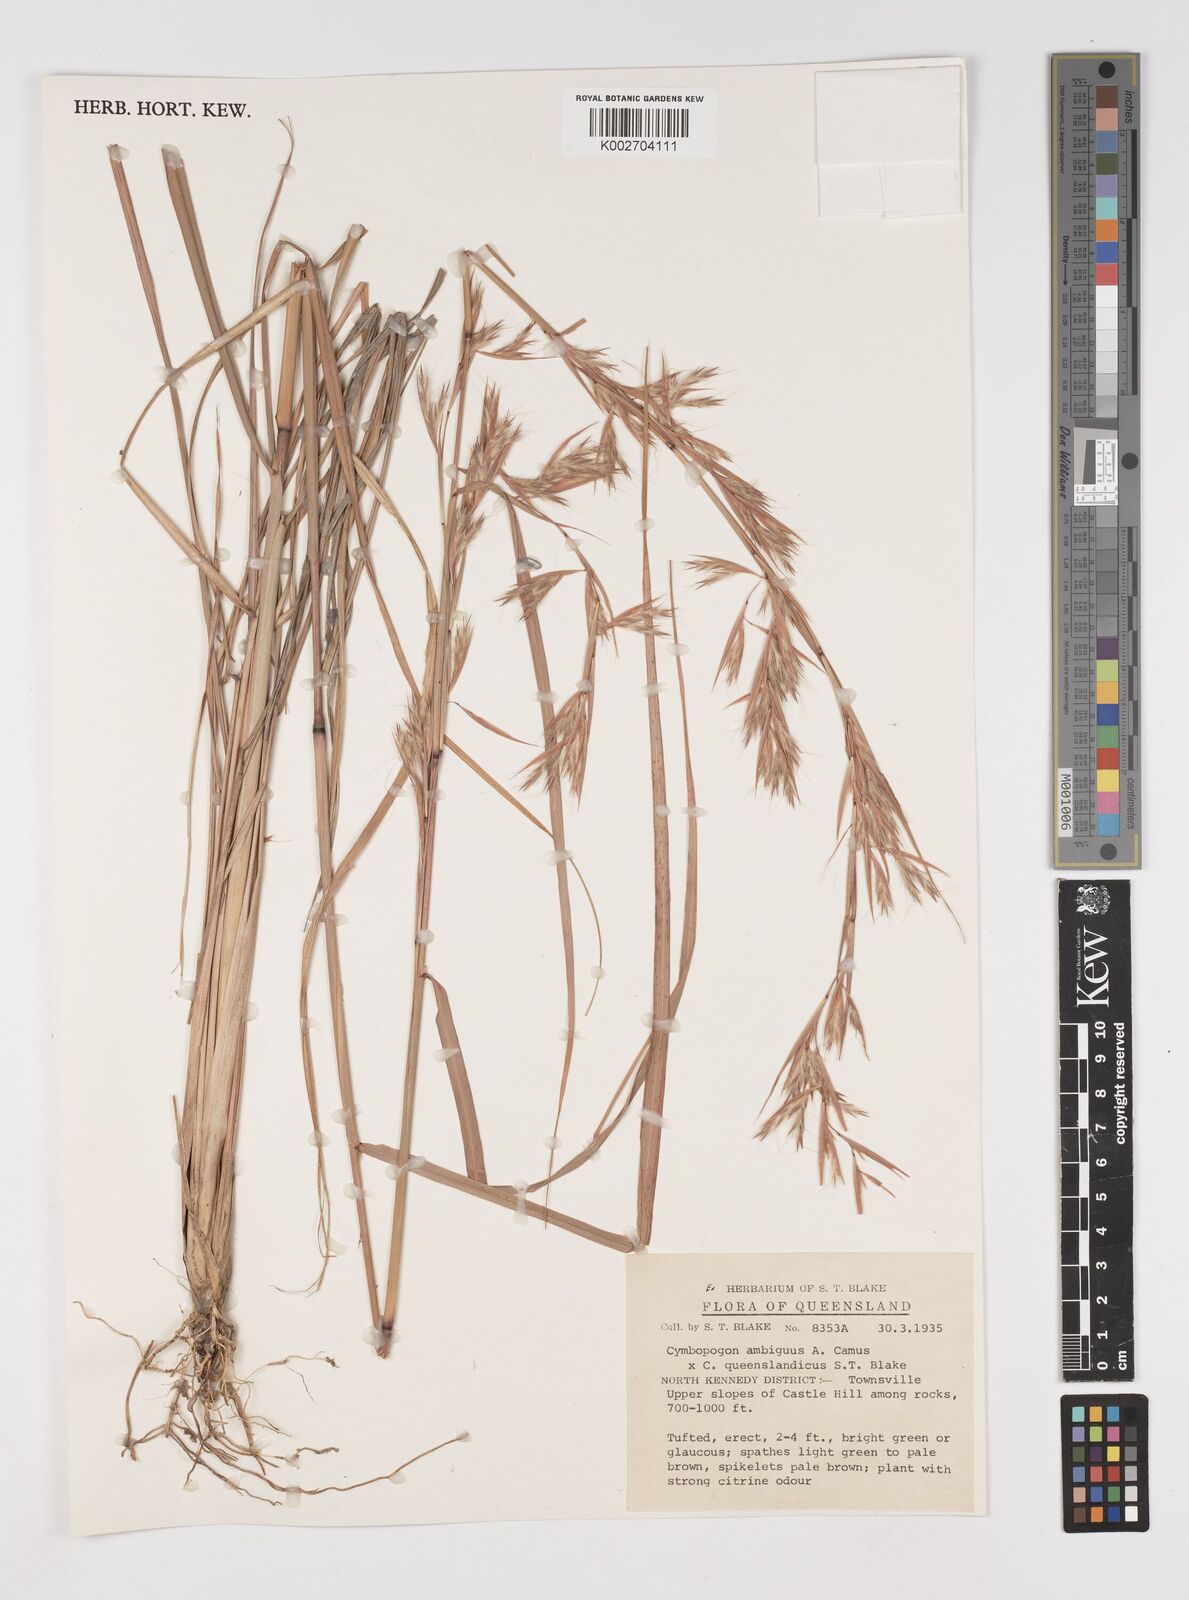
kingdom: Plantae
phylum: Tracheophyta
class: Liliopsida
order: Poales
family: Poaceae
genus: Cymbopogon
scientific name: Cymbopogon queenslandicus
